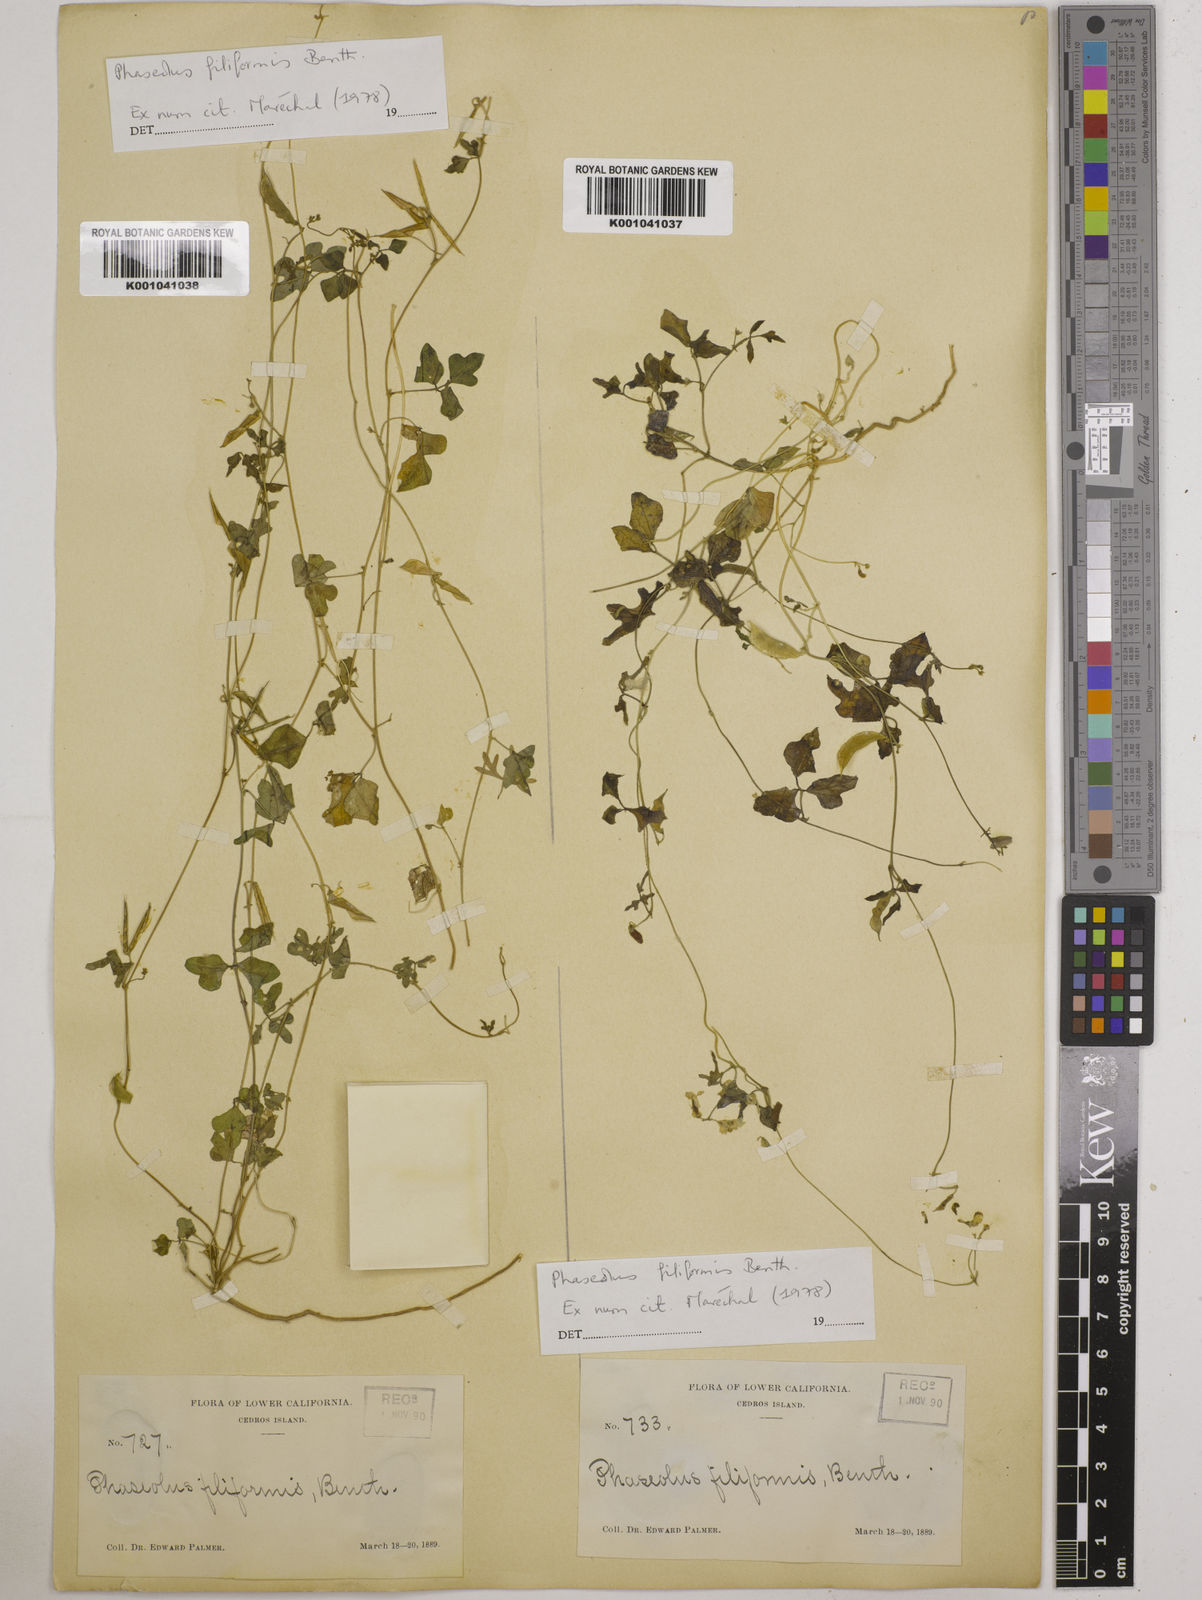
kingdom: Plantae
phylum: Tracheophyta
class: Magnoliopsida
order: Fabales
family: Fabaceae
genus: Phaseolus
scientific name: Phaseolus filiformis
